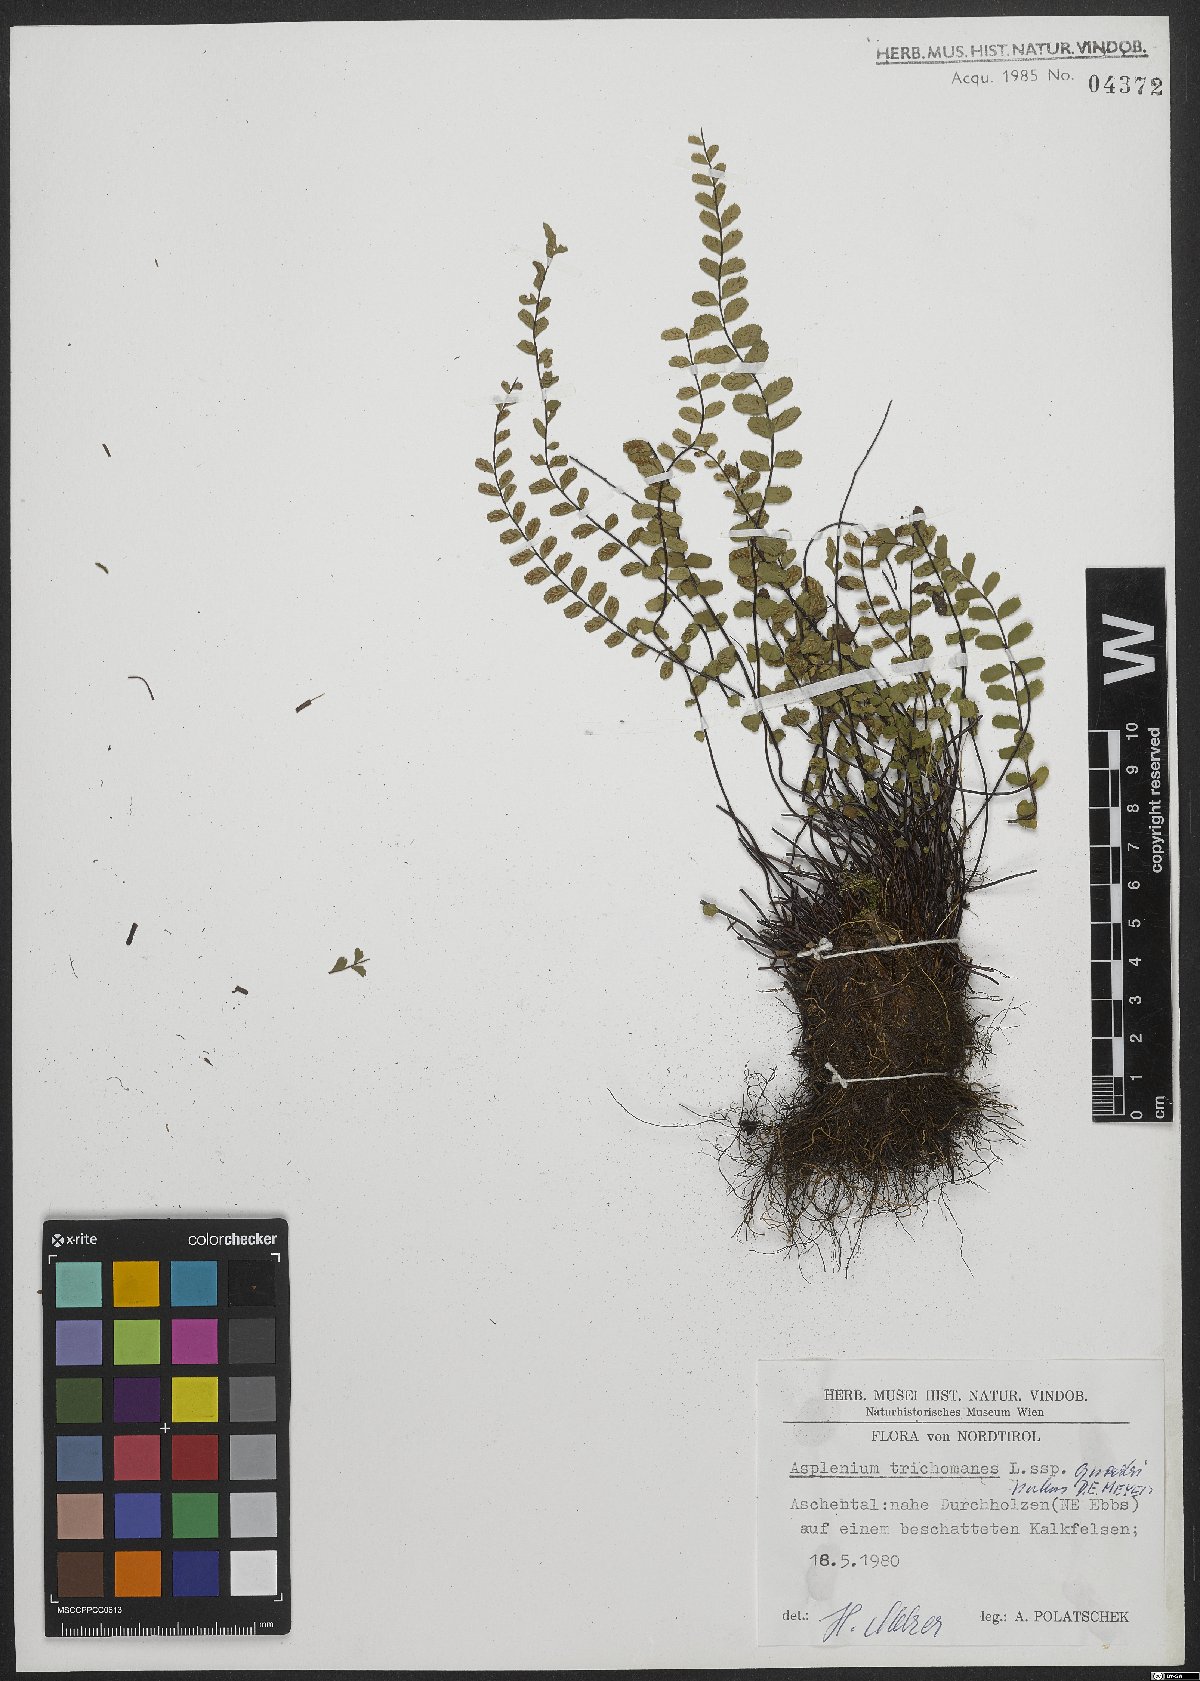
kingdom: Plantae
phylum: Tracheophyta
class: Polypodiopsida
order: Polypodiales
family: Aspleniaceae
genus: Asplenium
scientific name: Asplenium quadrivalens
